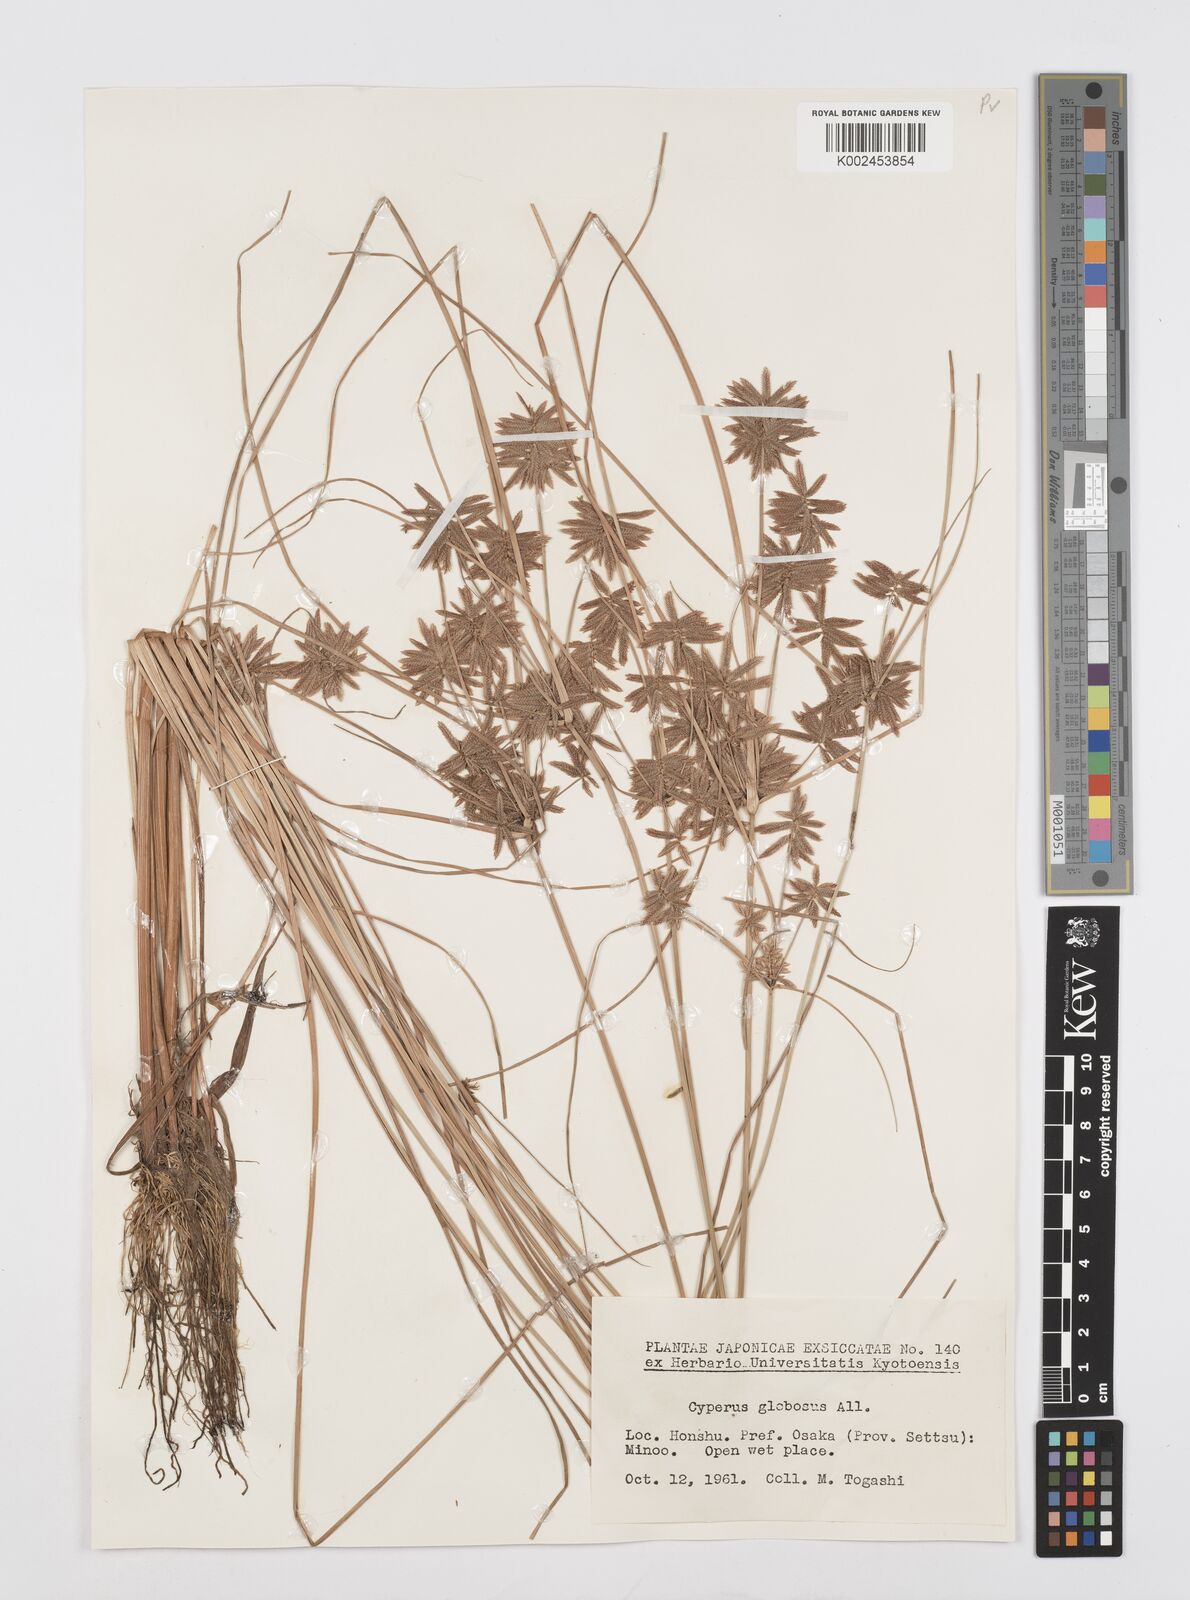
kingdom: Plantae
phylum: Tracheophyta
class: Liliopsida
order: Poales
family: Cyperaceae
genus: Cyperus
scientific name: Cyperus flavidus
